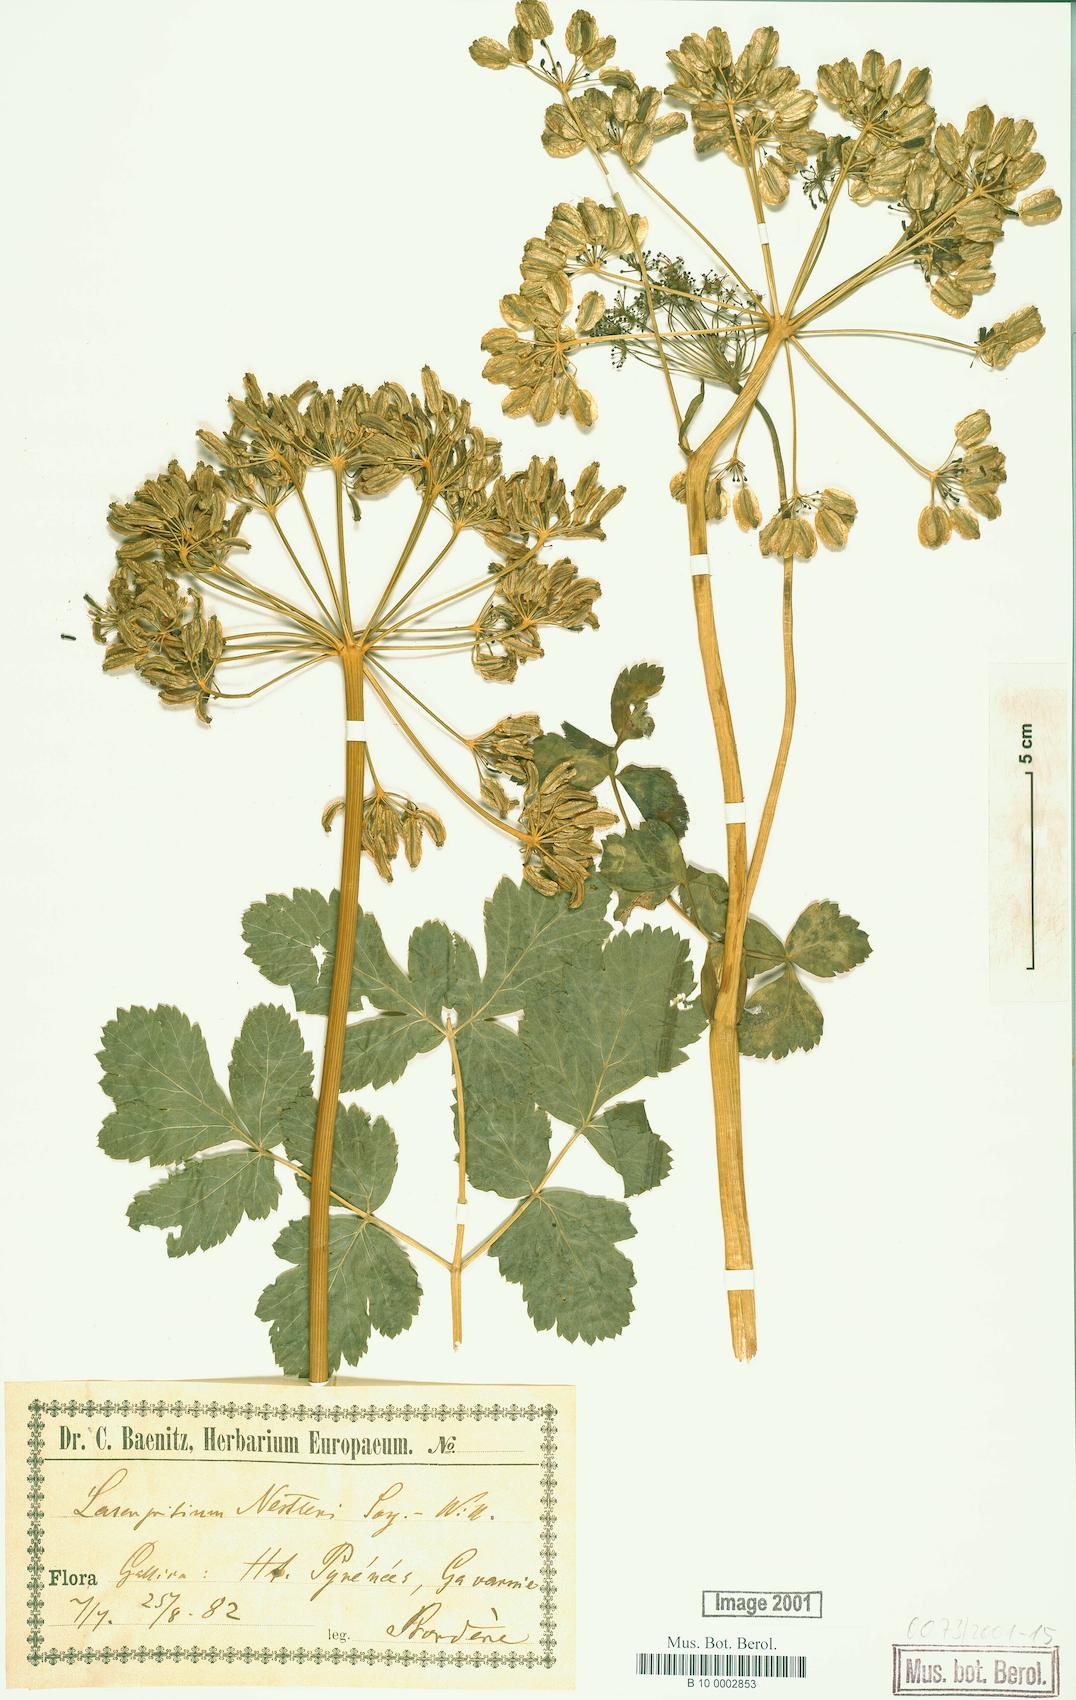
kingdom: Plantae
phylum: Tracheophyta
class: Magnoliopsida
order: Apiales
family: Apiaceae
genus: Thapsia
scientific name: Thapsia nestleri
